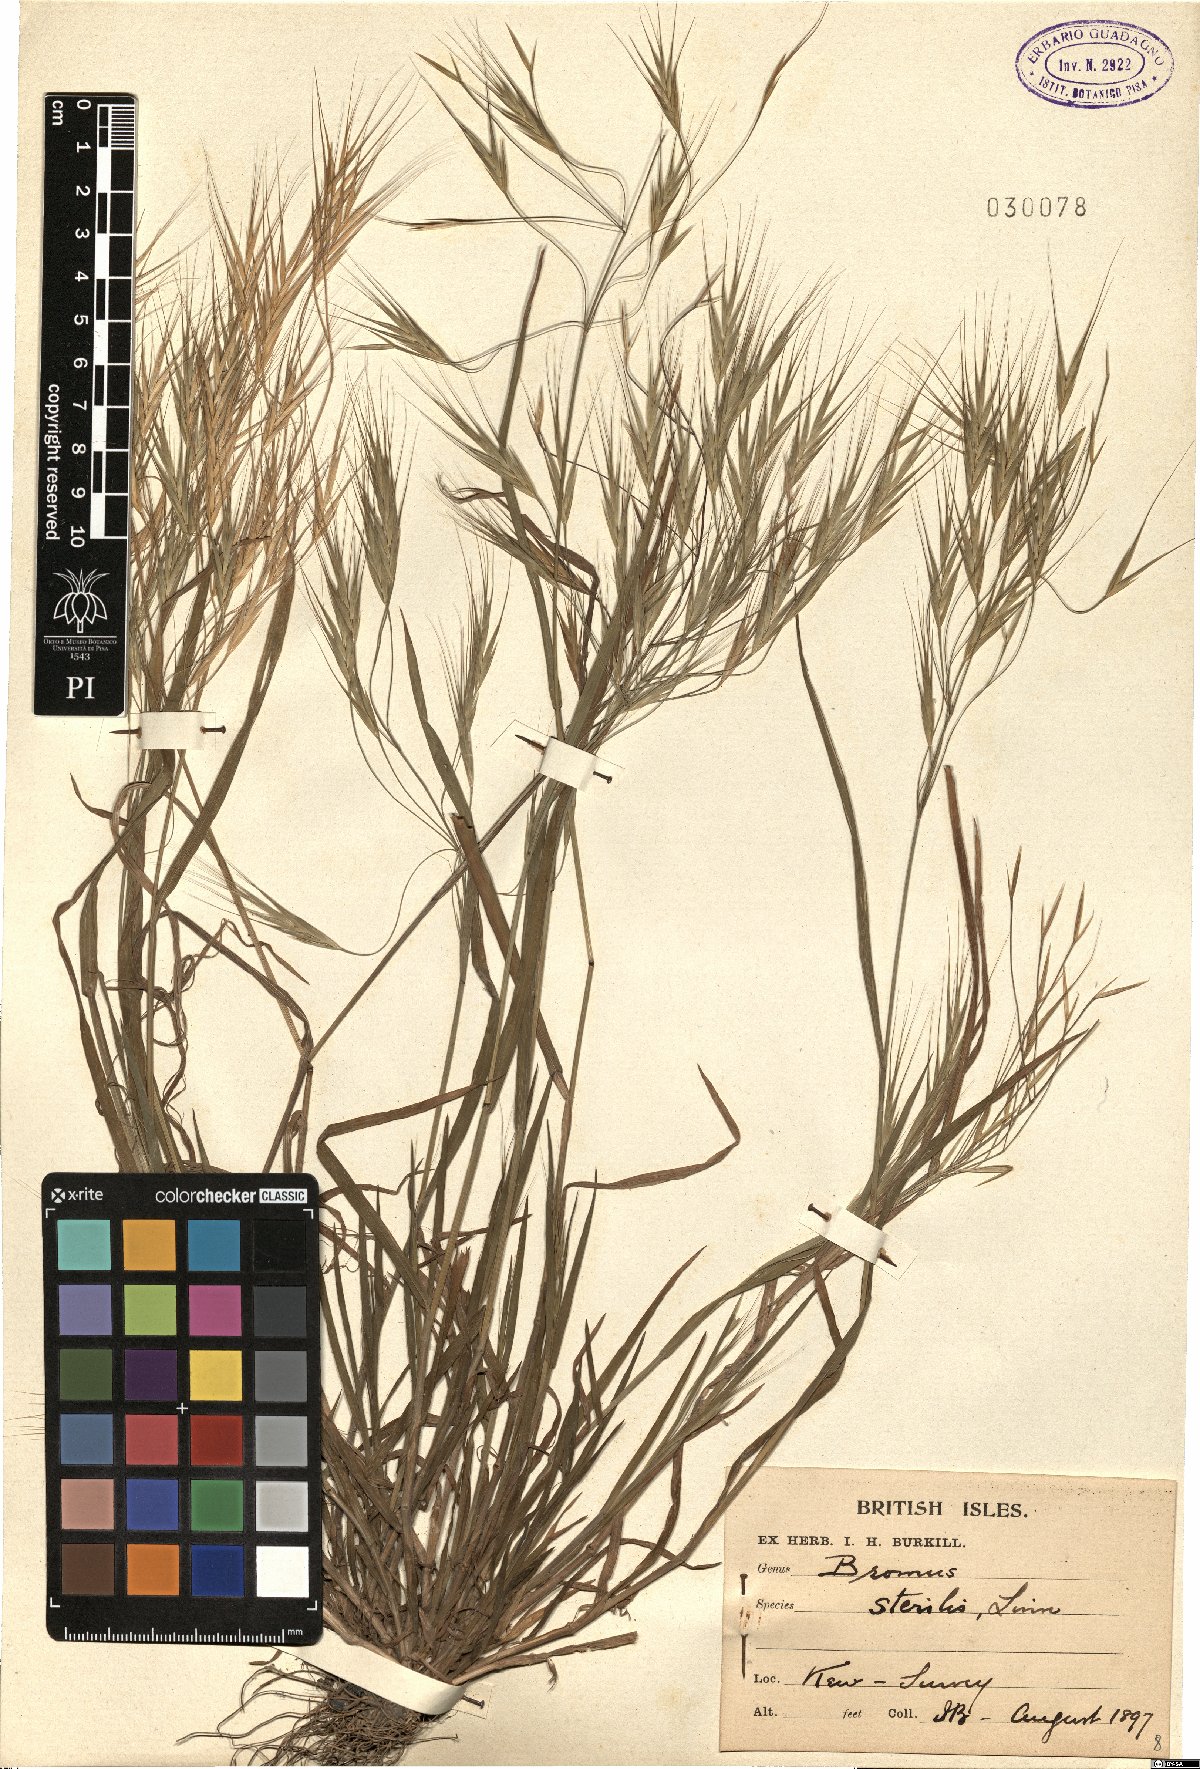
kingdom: Plantae
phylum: Tracheophyta
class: Liliopsida
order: Poales
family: Poaceae
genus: Bromus
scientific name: Bromus sterilis
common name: Poverty brome
